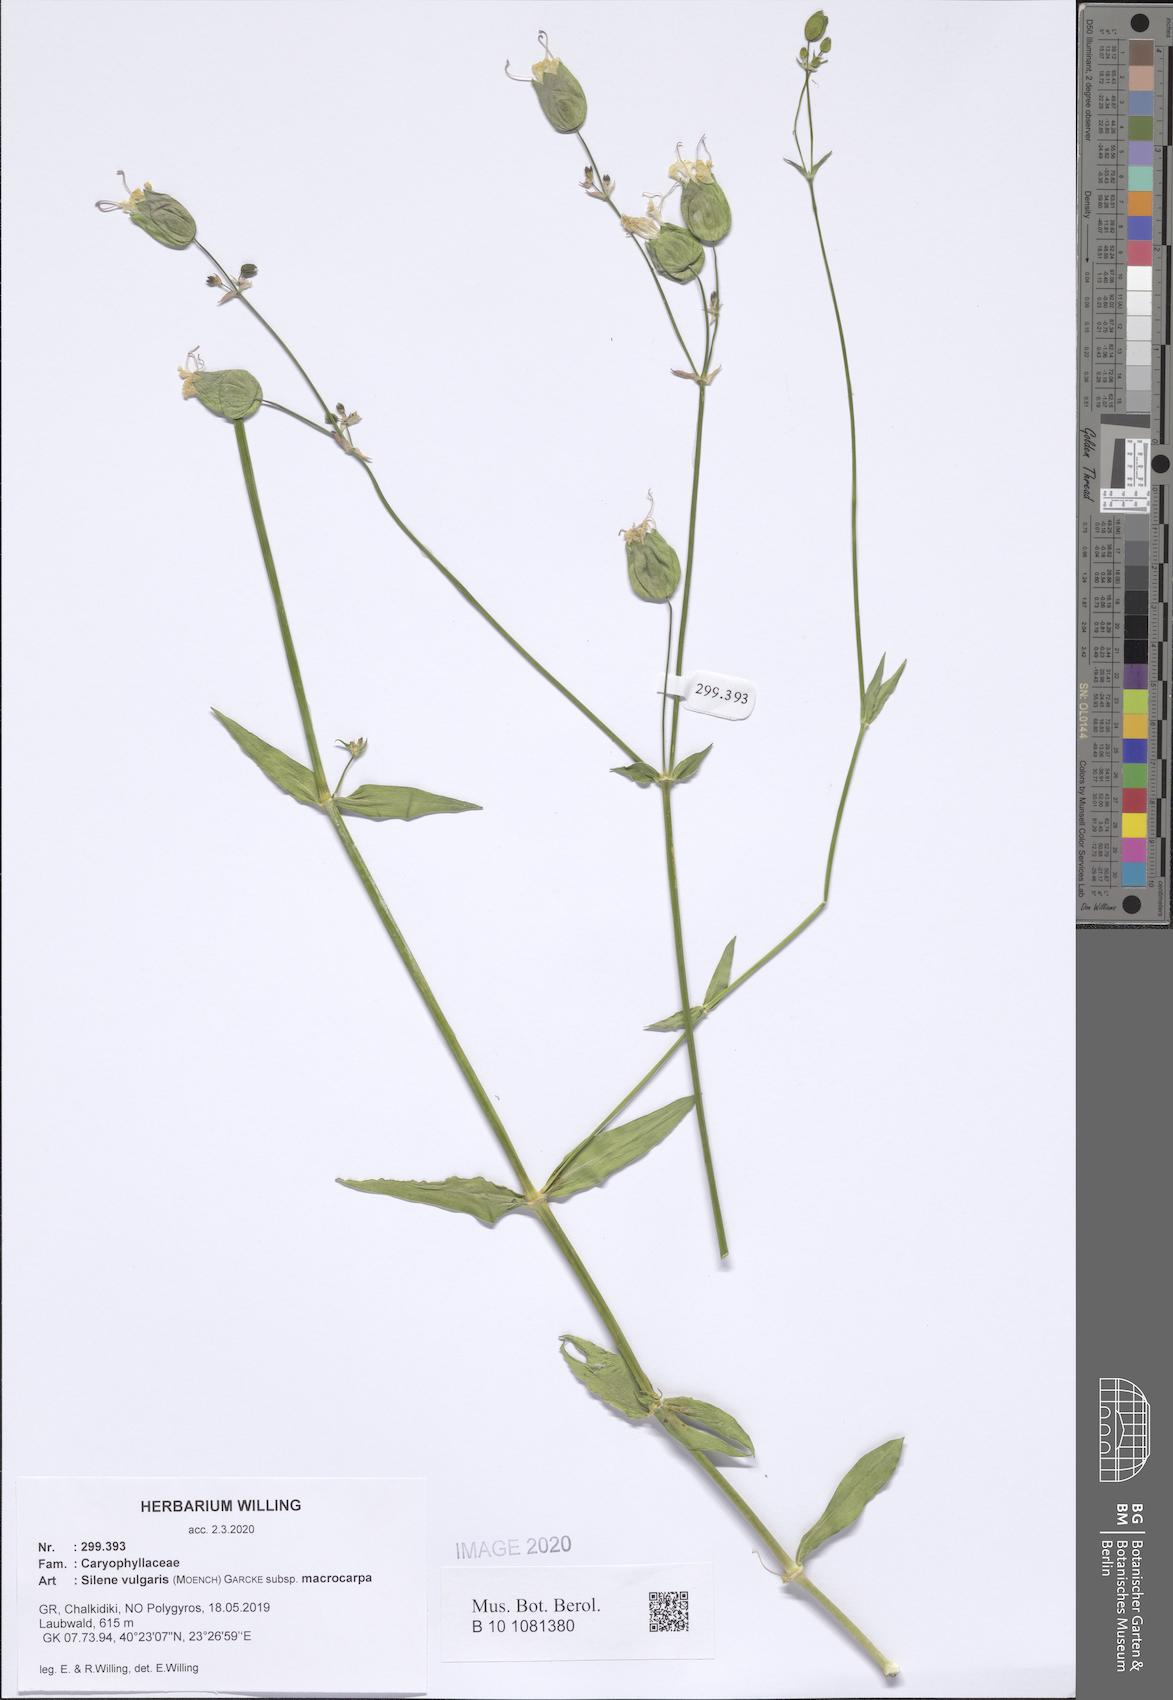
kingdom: Plantae
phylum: Tracheophyta
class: Magnoliopsida
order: Caryophyllales
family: Caryophyllaceae
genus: Silene
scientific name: Silene vulgaris
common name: Bladder campion
